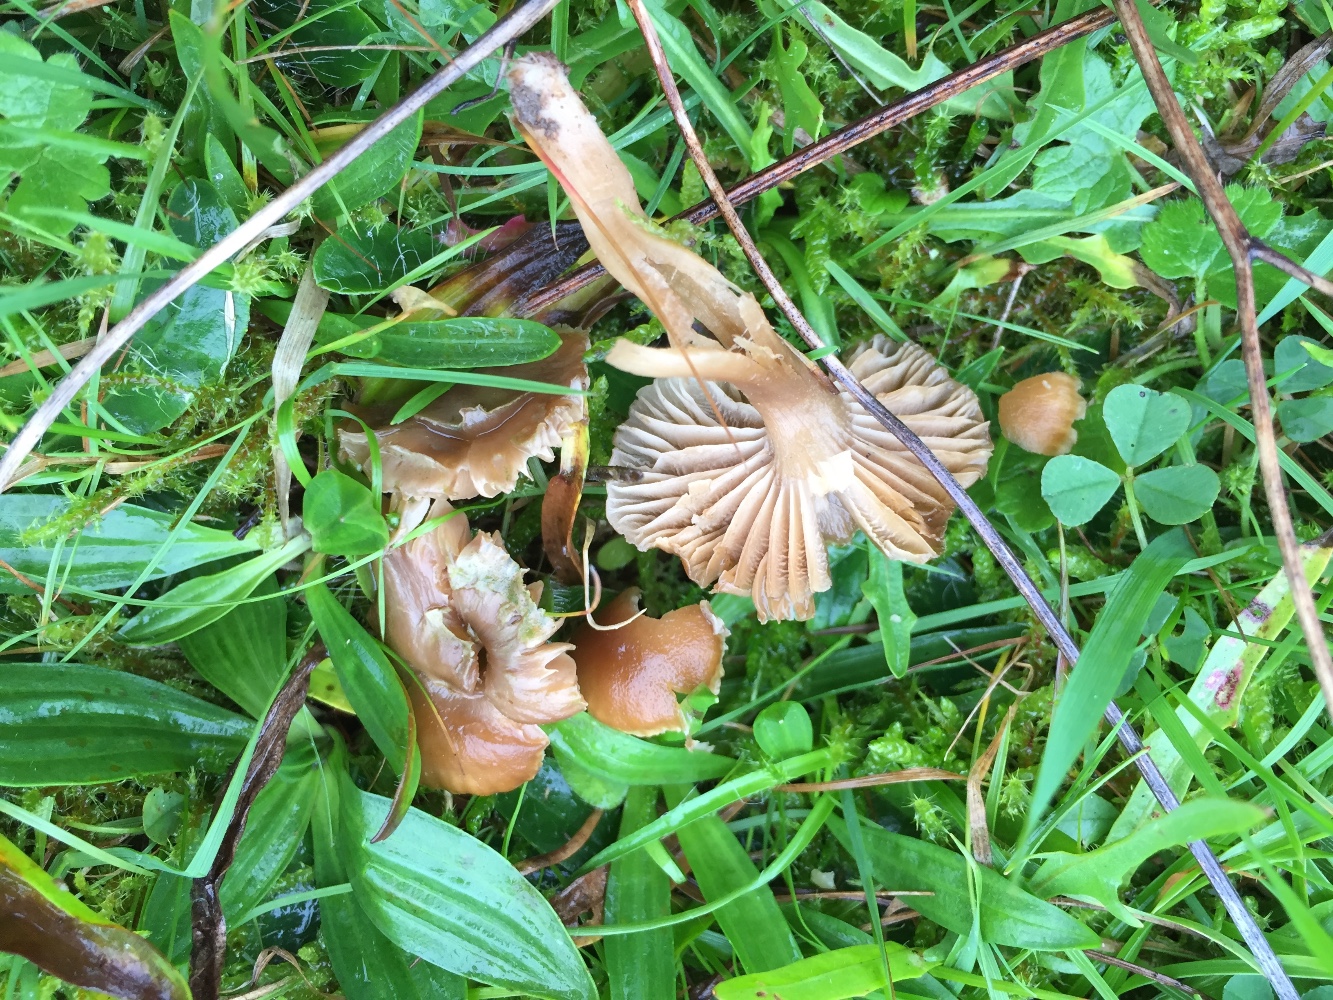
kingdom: Fungi
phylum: Basidiomycota
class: Agaricomycetes
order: Agaricales
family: Clavariaceae
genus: Camarophyllopsis
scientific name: Camarophyllopsis schulzeri
